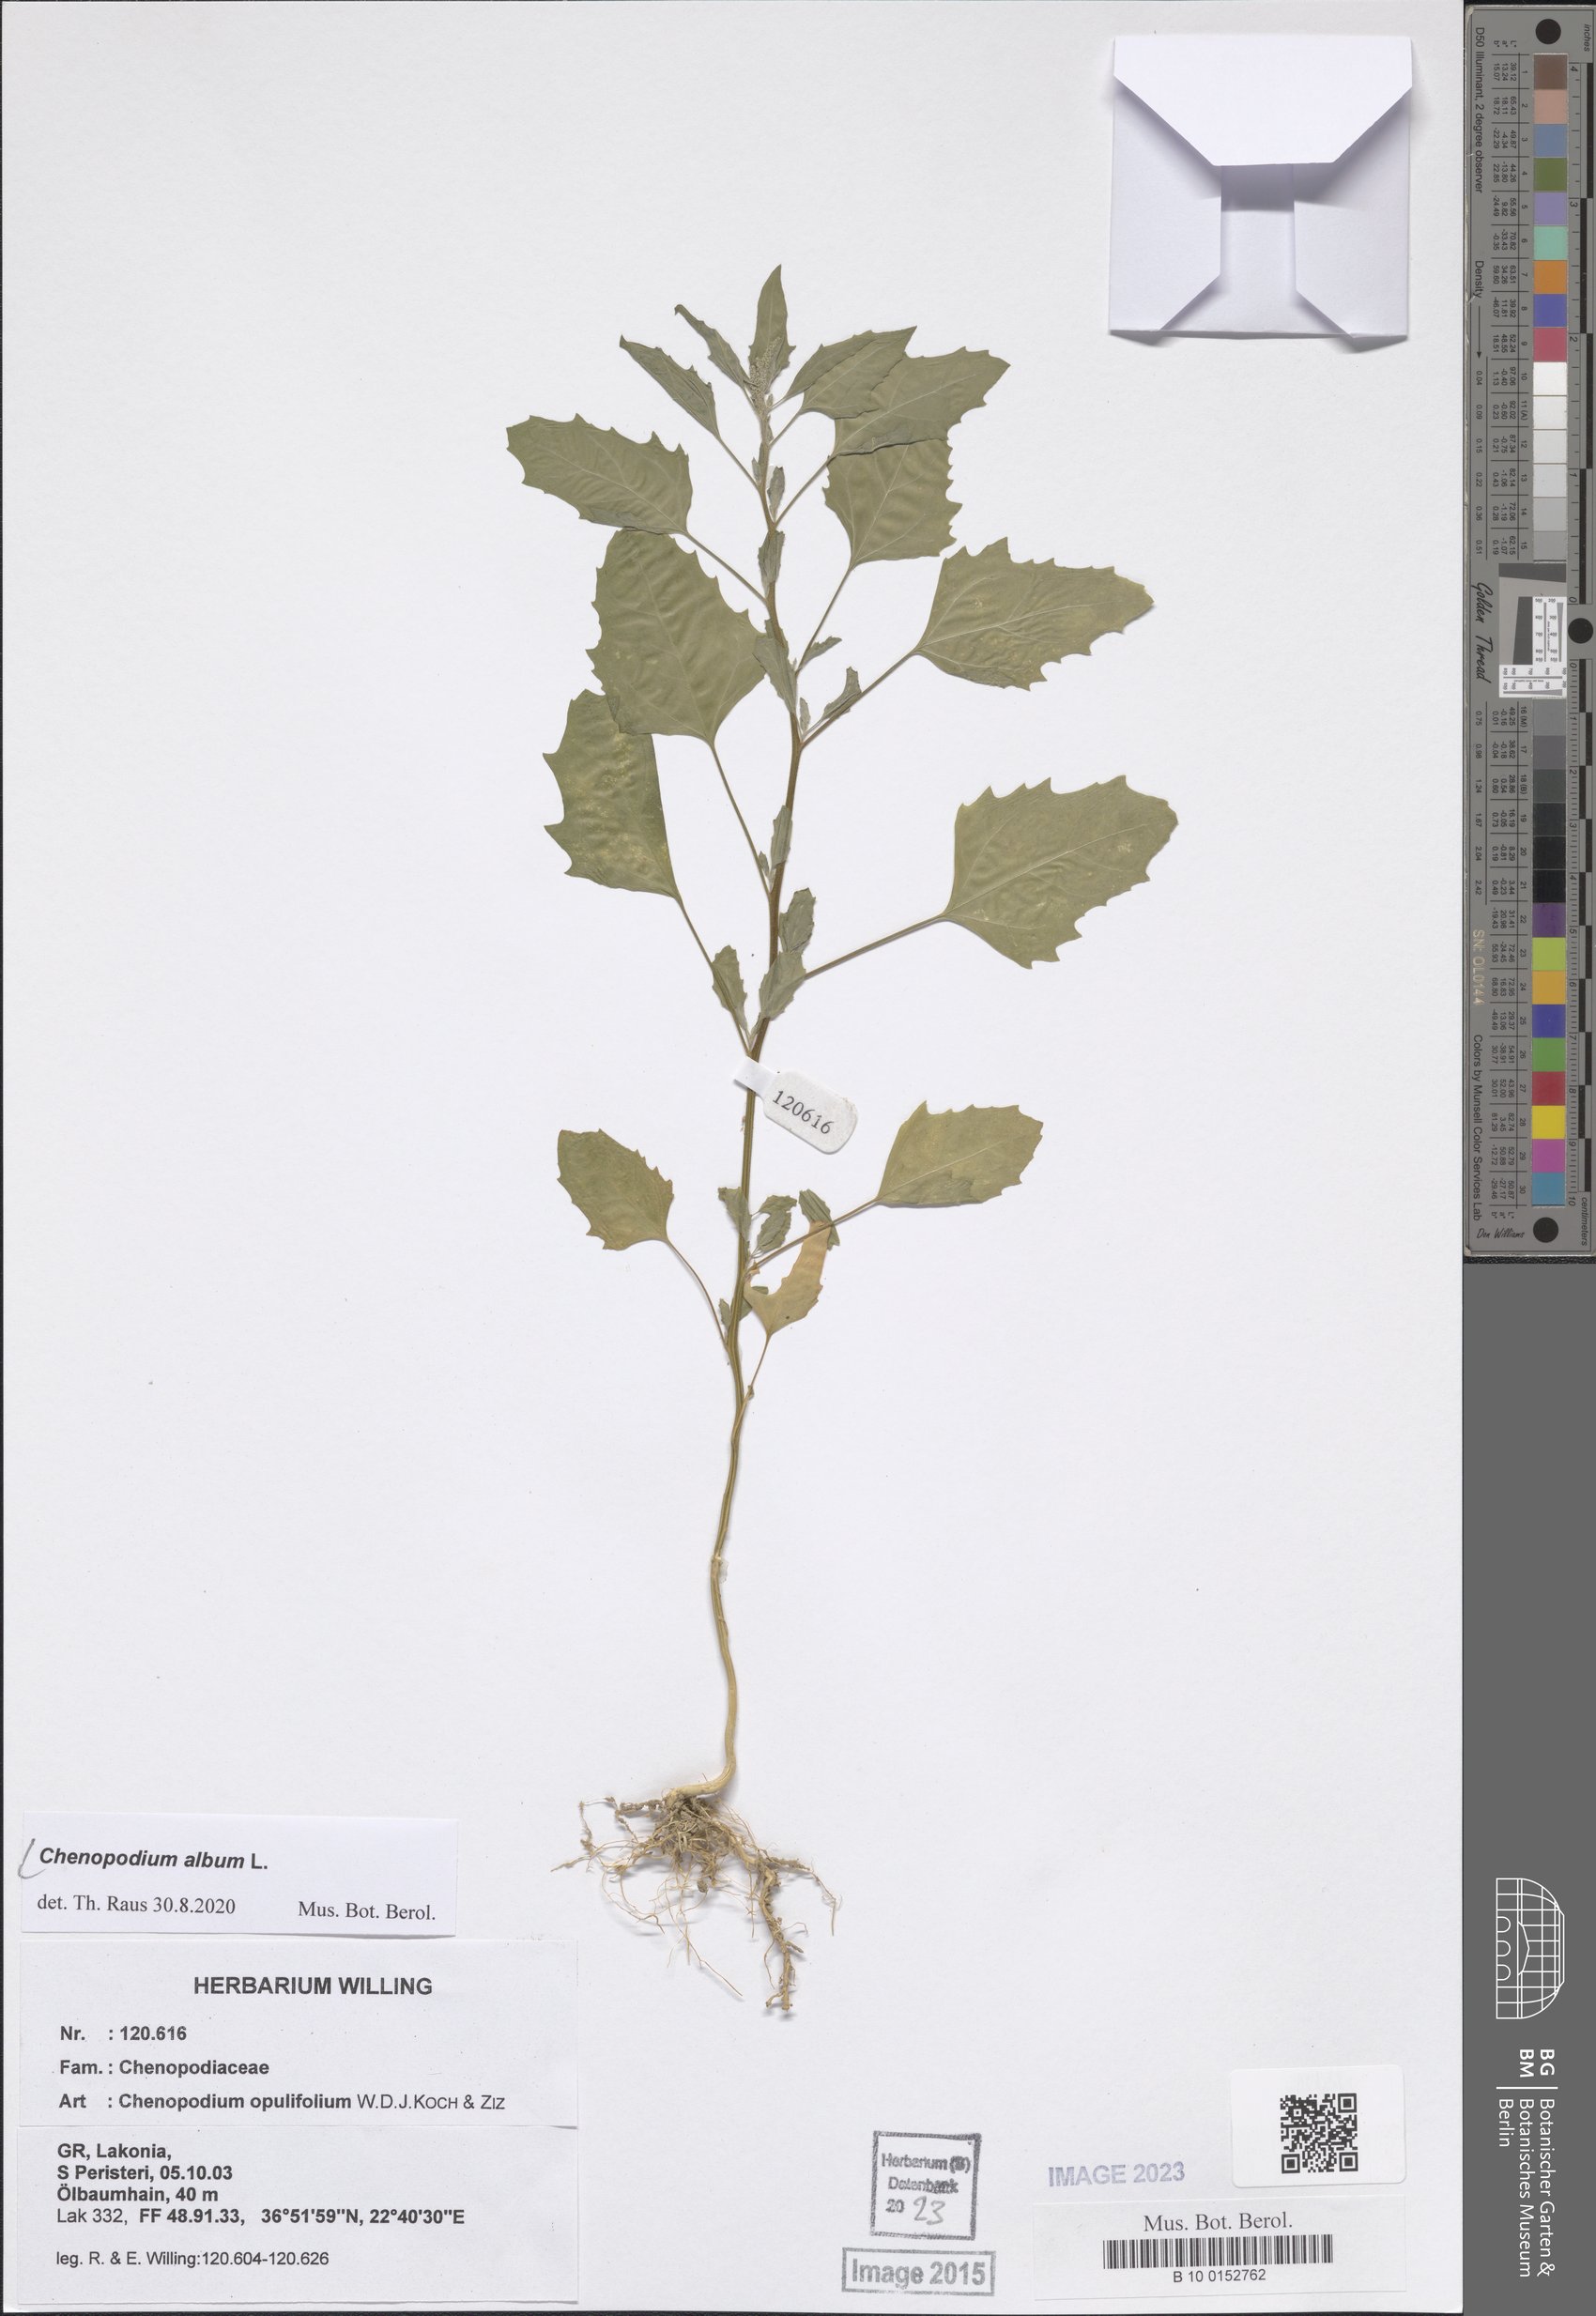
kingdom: Plantae
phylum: Tracheophyta
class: Magnoliopsida
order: Caryophyllales
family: Amaranthaceae
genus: Chenopodium
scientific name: Chenopodium album
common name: Fat-hen
